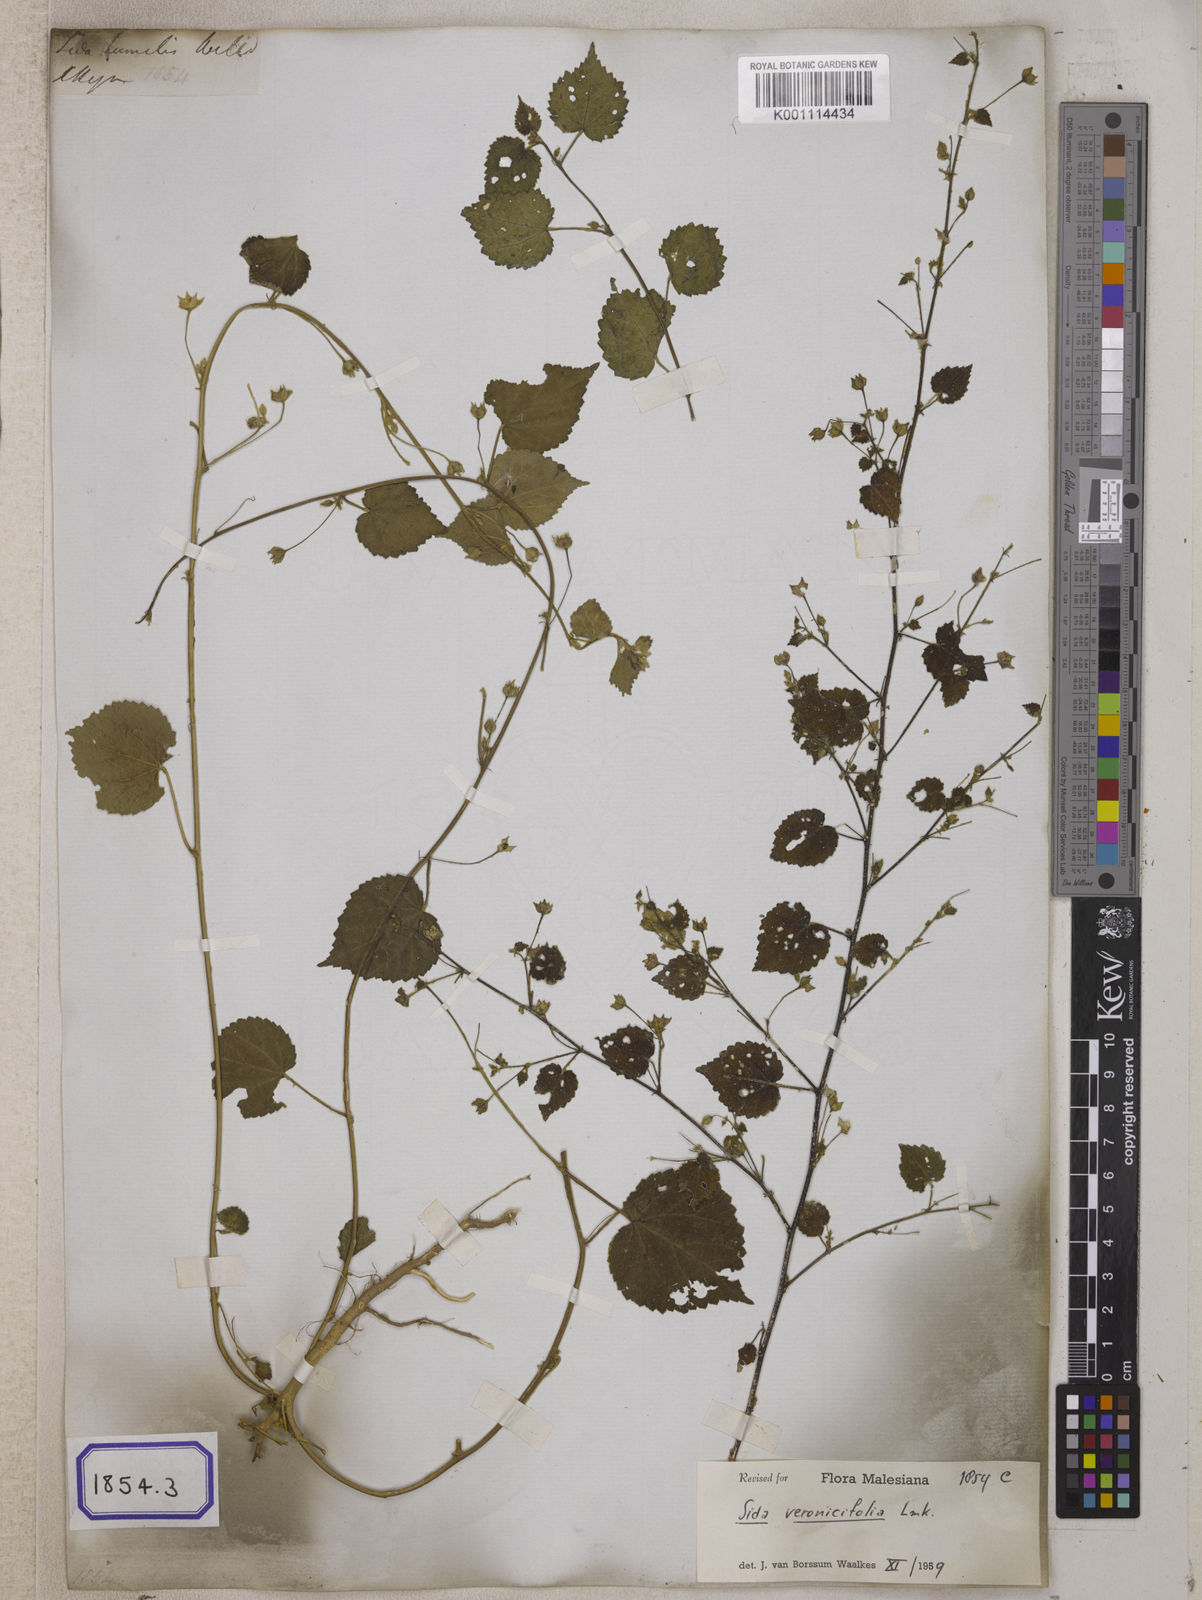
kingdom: Plantae
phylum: Tracheophyta
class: Magnoliopsida
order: Malvales
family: Malvaceae
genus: Sida
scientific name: Sida
